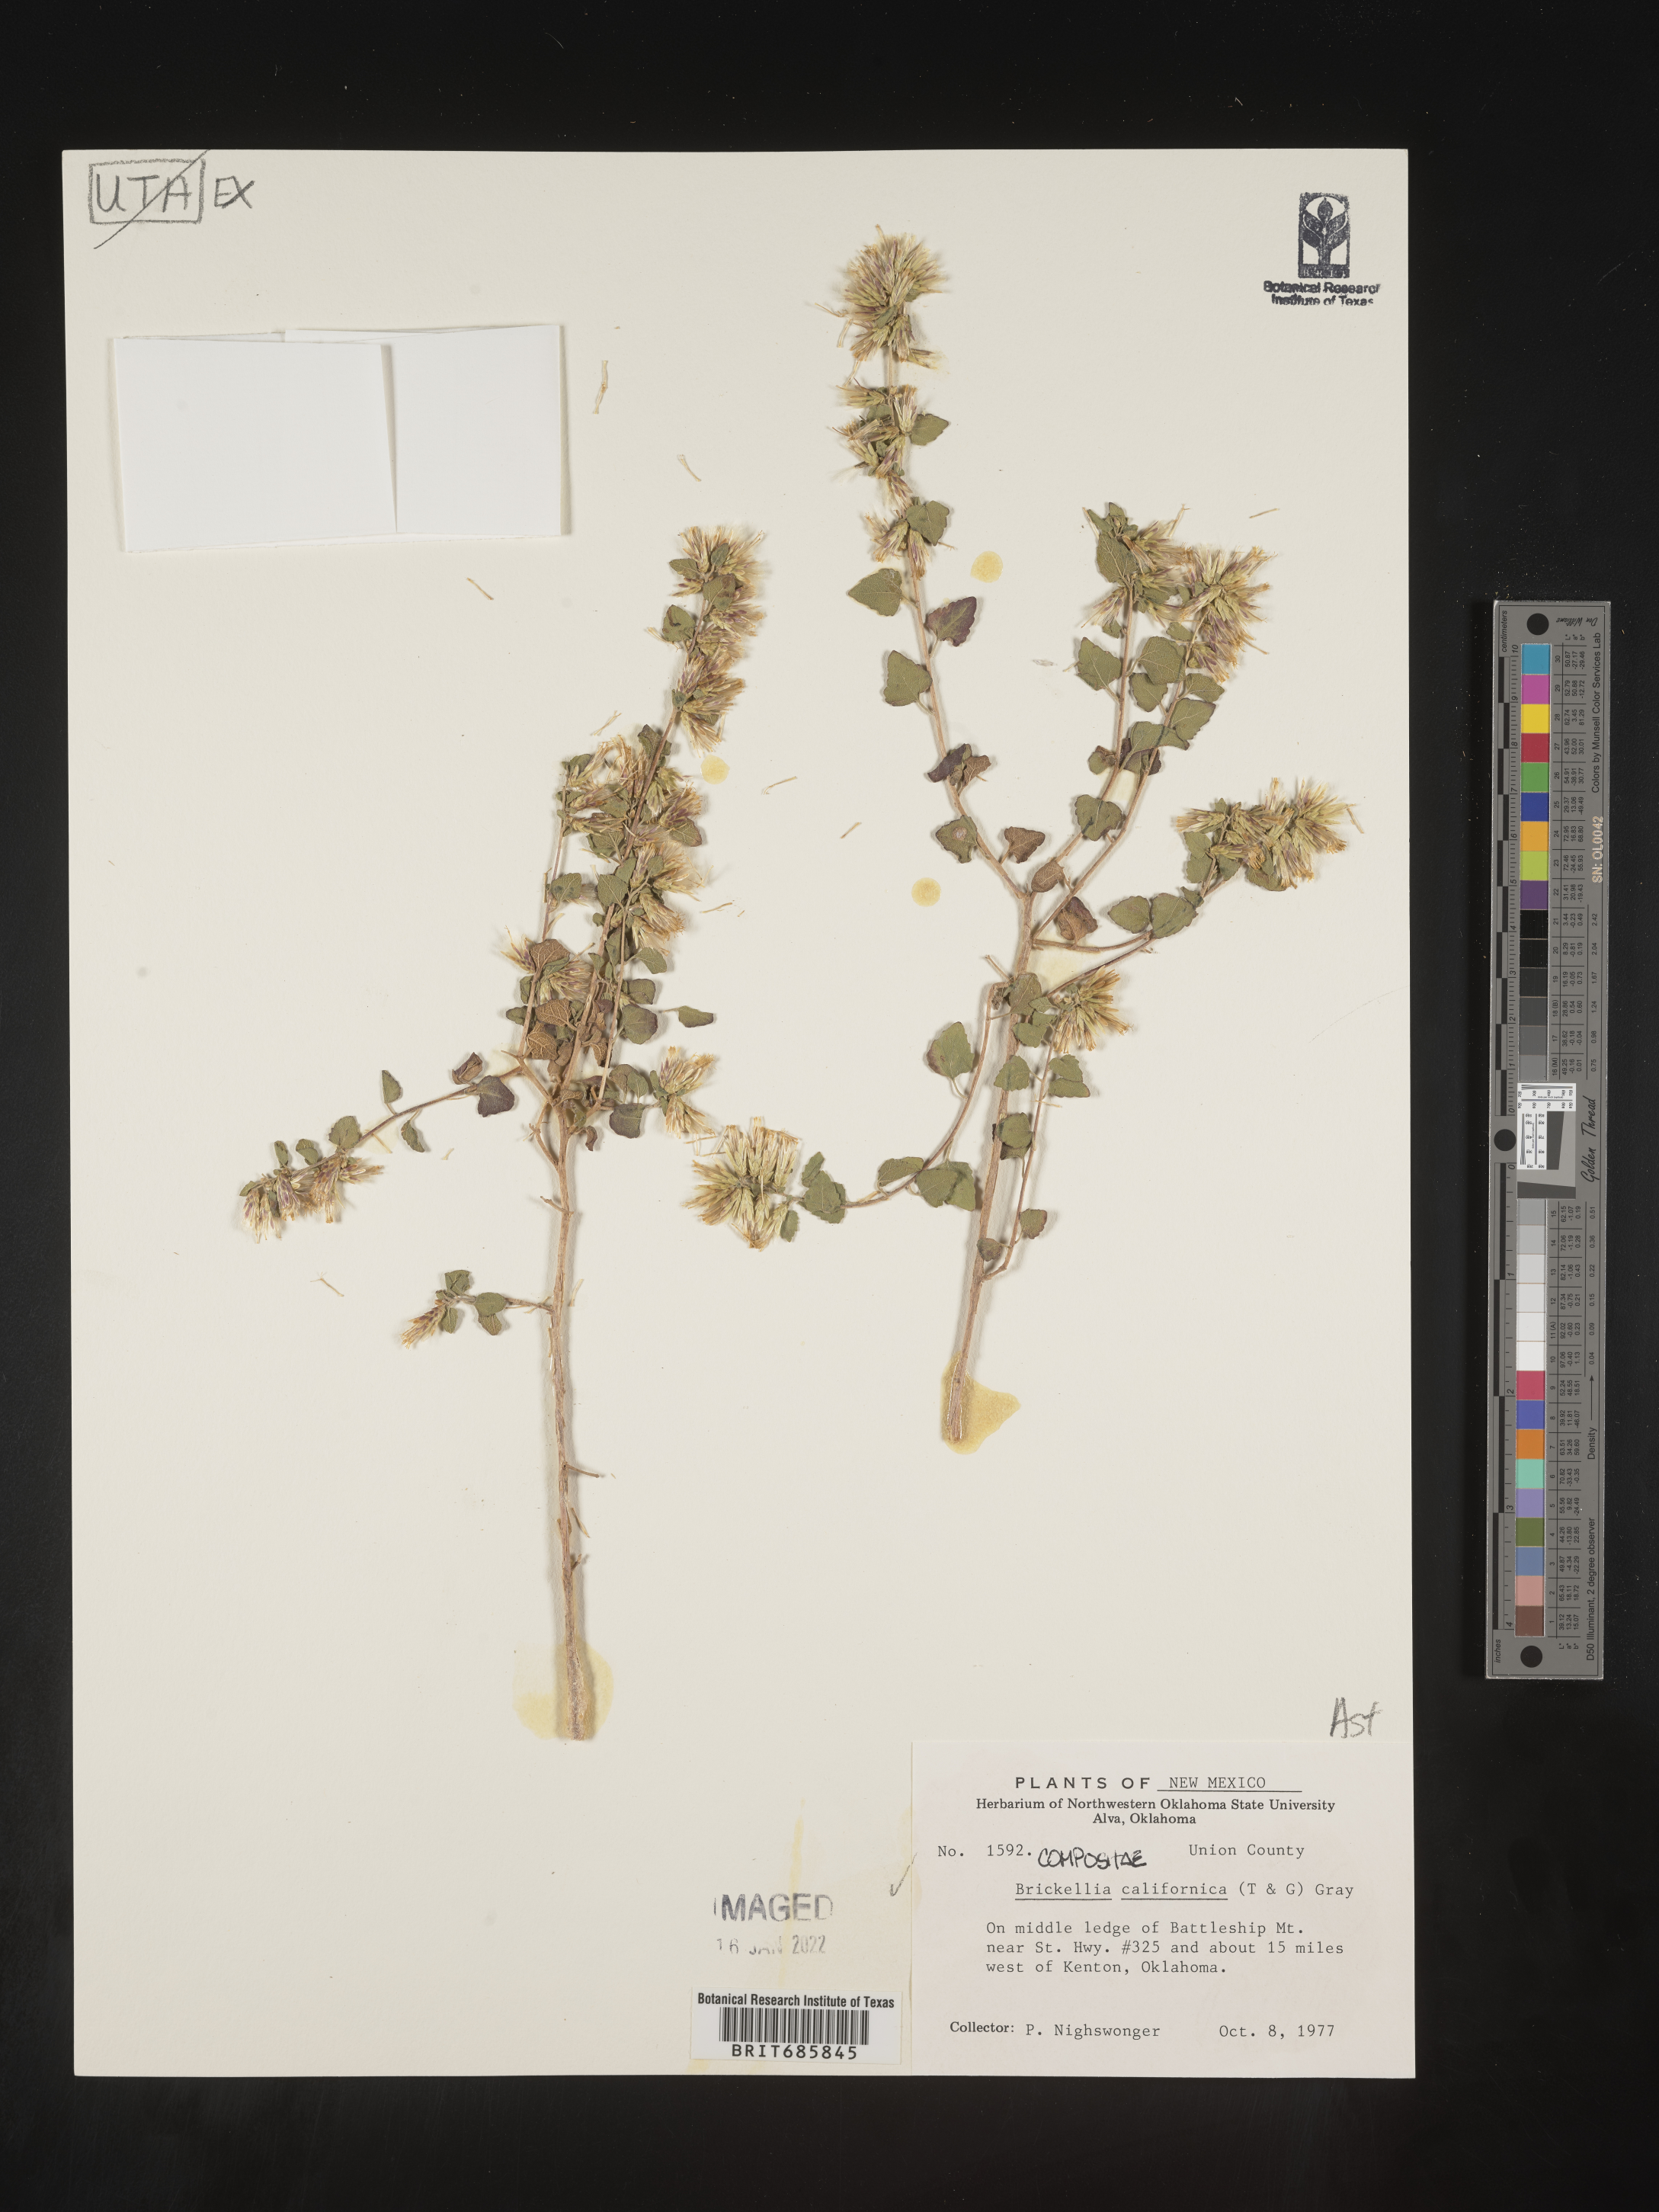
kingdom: Plantae
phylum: Tracheophyta
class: Magnoliopsida
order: Asterales
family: Asteraceae
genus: Brickellia
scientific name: Brickellia californica
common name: California brickellbush
